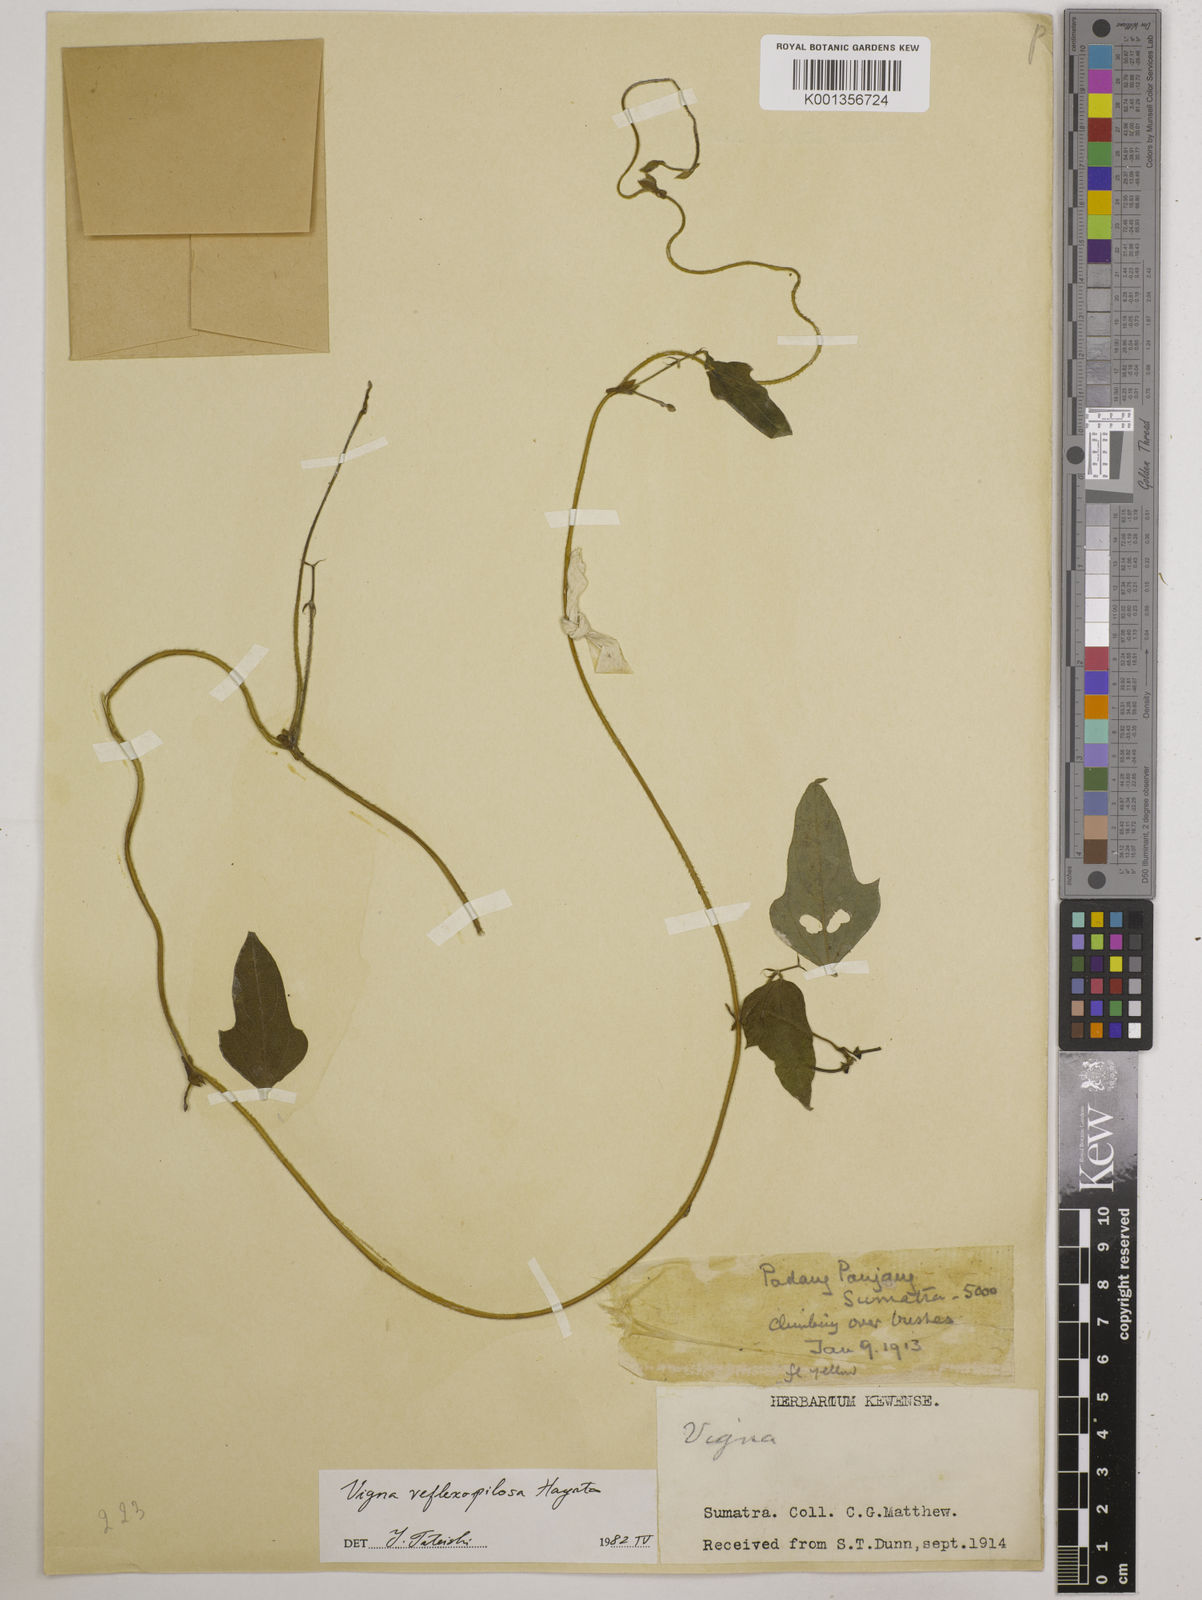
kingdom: Plantae
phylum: Tracheophyta
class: Magnoliopsida
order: Fabales
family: Fabaceae
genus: Vigna
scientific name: Vigna reflexopilosa
